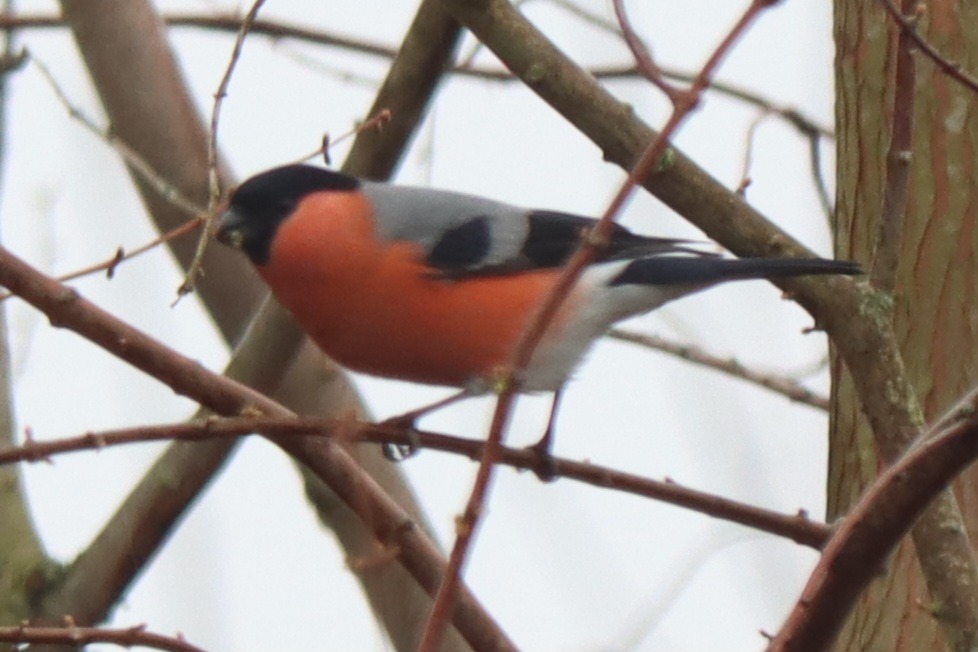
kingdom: Animalia
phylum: Chordata
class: Aves
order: Passeriformes
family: Fringillidae
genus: Pyrrhula
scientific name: Pyrrhula pyrrhula
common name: Dompap
